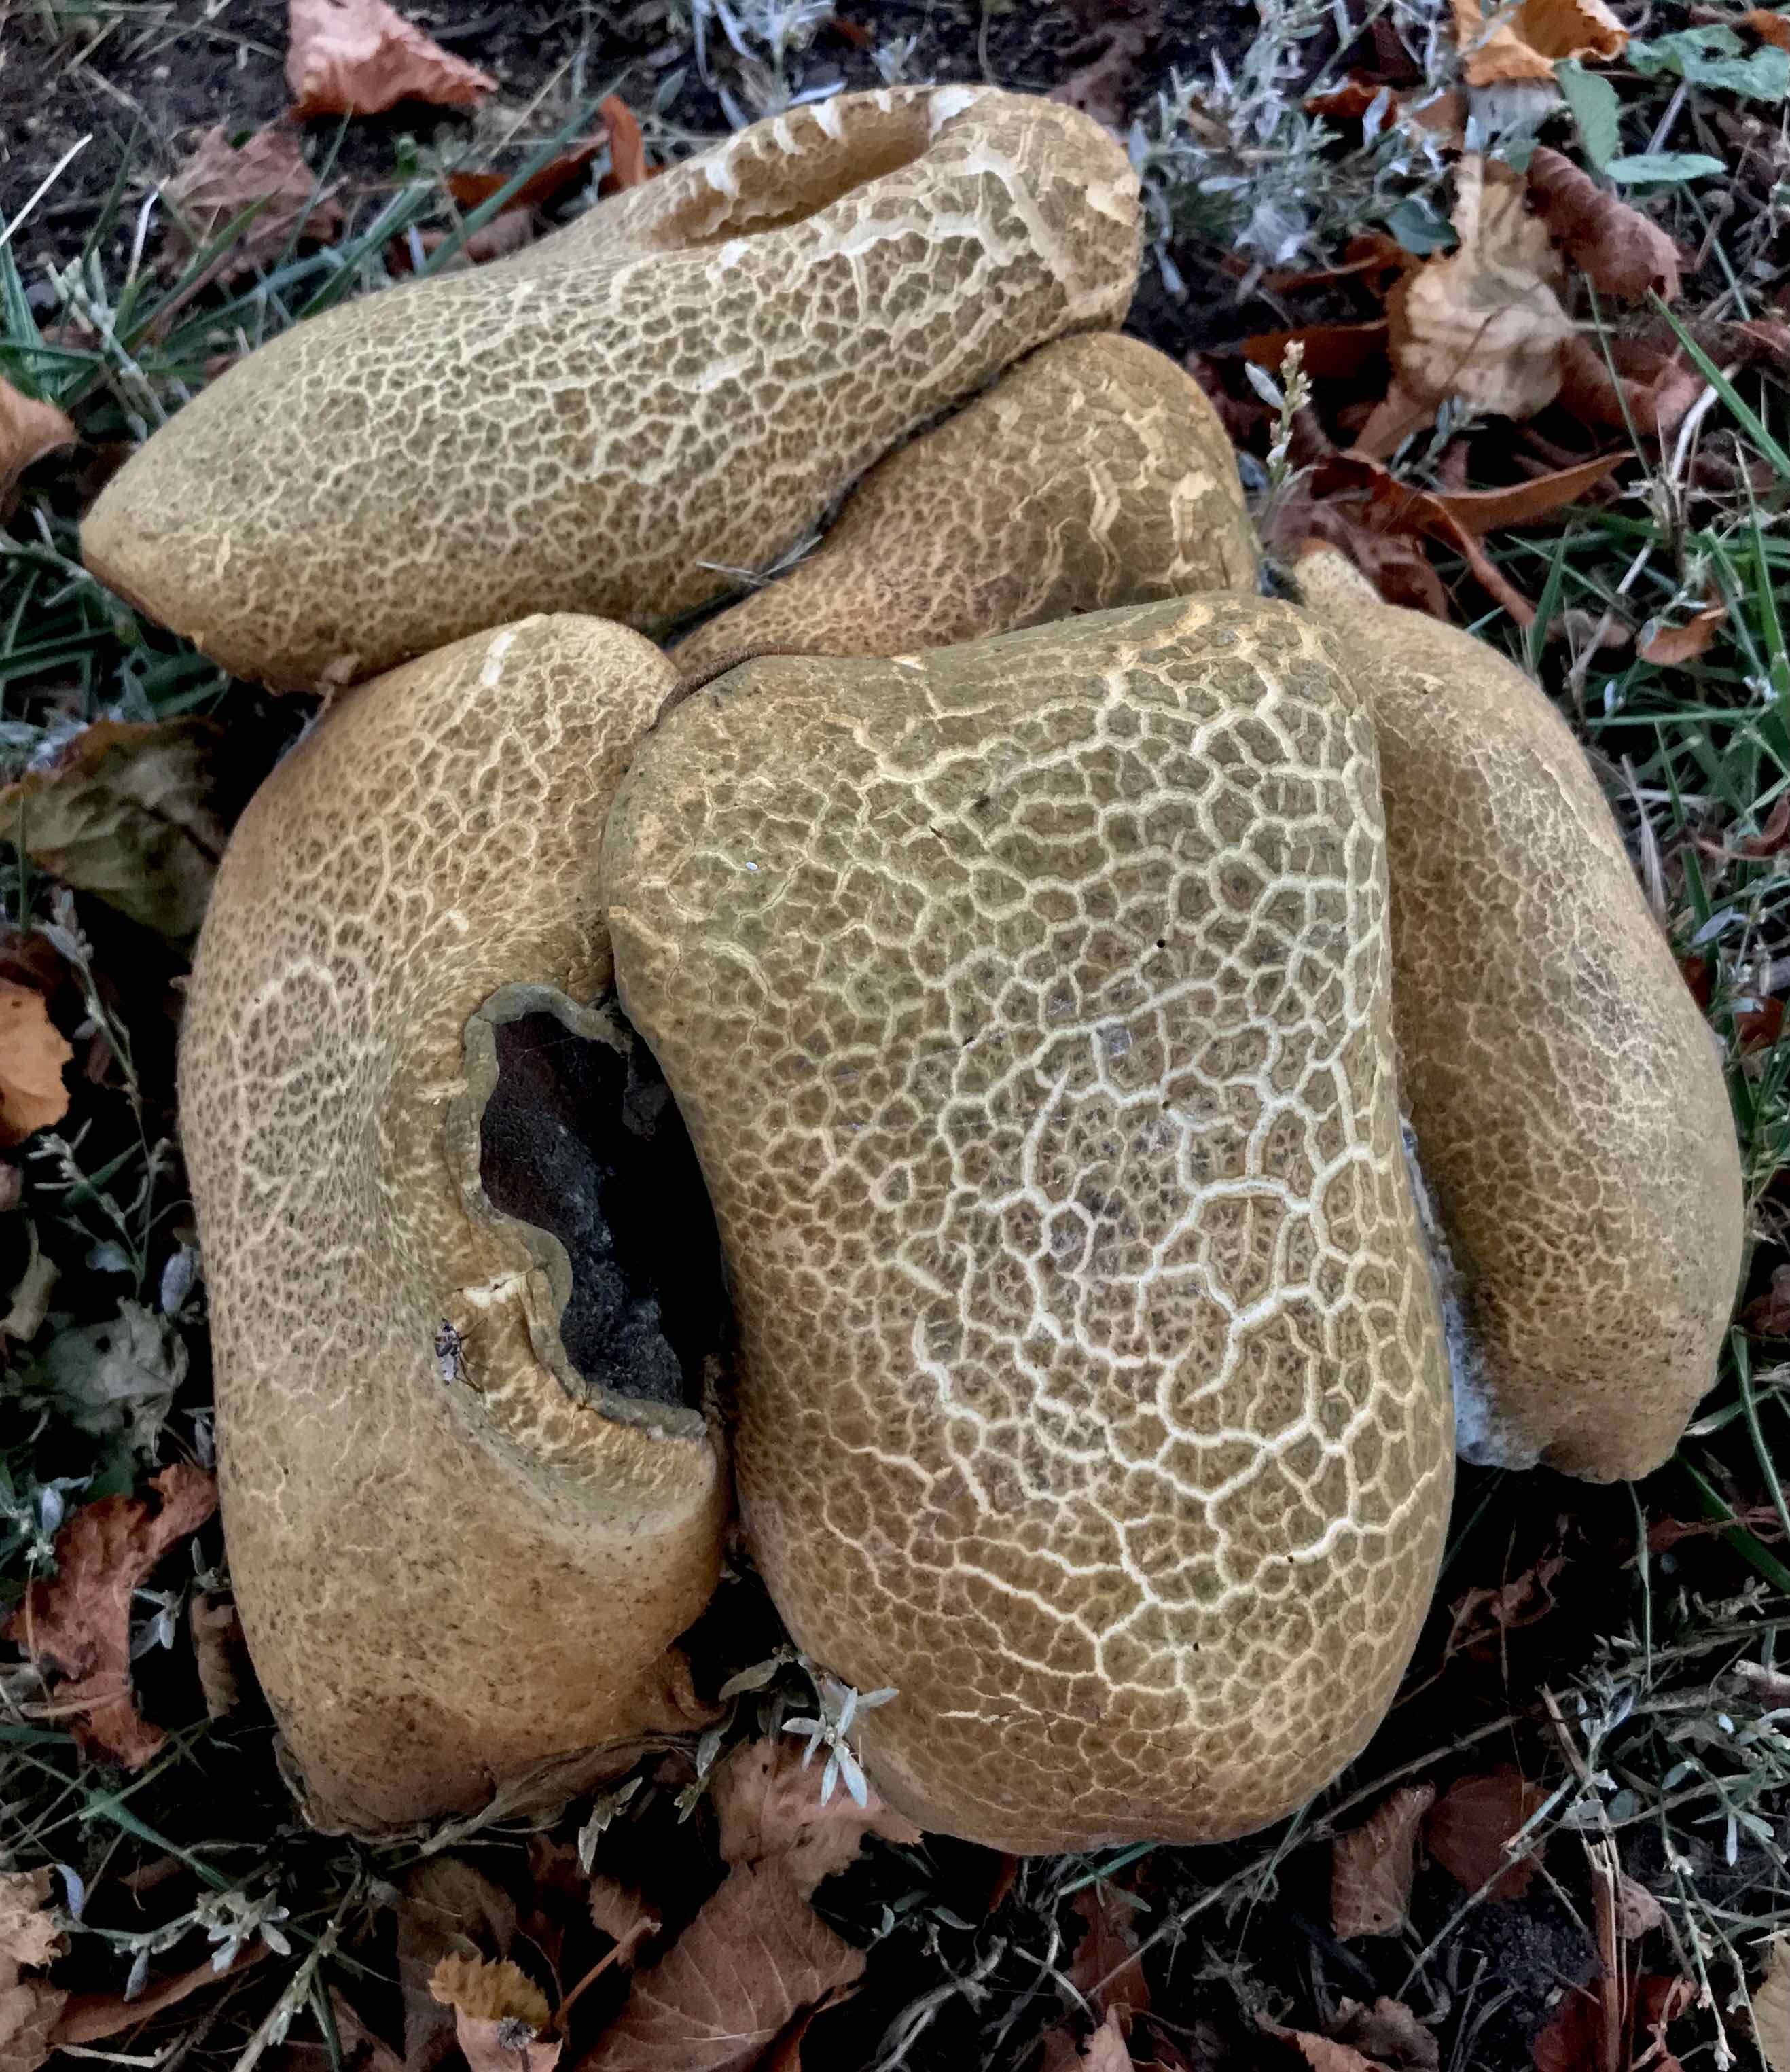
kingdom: Fungi
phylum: Basidiomycota
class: Agaricomycetes
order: Boletales
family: Boletaceae
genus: Caloboletus
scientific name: Caloboletus calopus
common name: skønfodet rørhat
